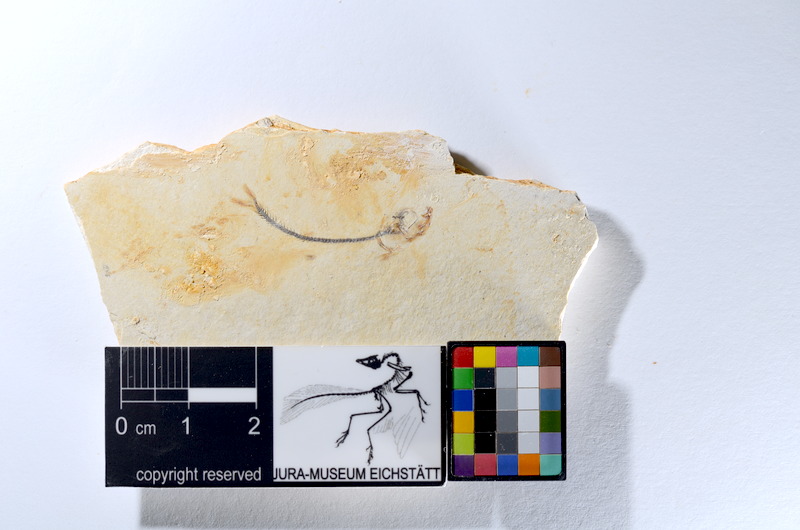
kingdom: Animalia
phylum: Chordata
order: Salmoniformes
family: Orthogonikleithridae
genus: Orthogonikleithrus
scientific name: Orthogonikleithrus hoelli
